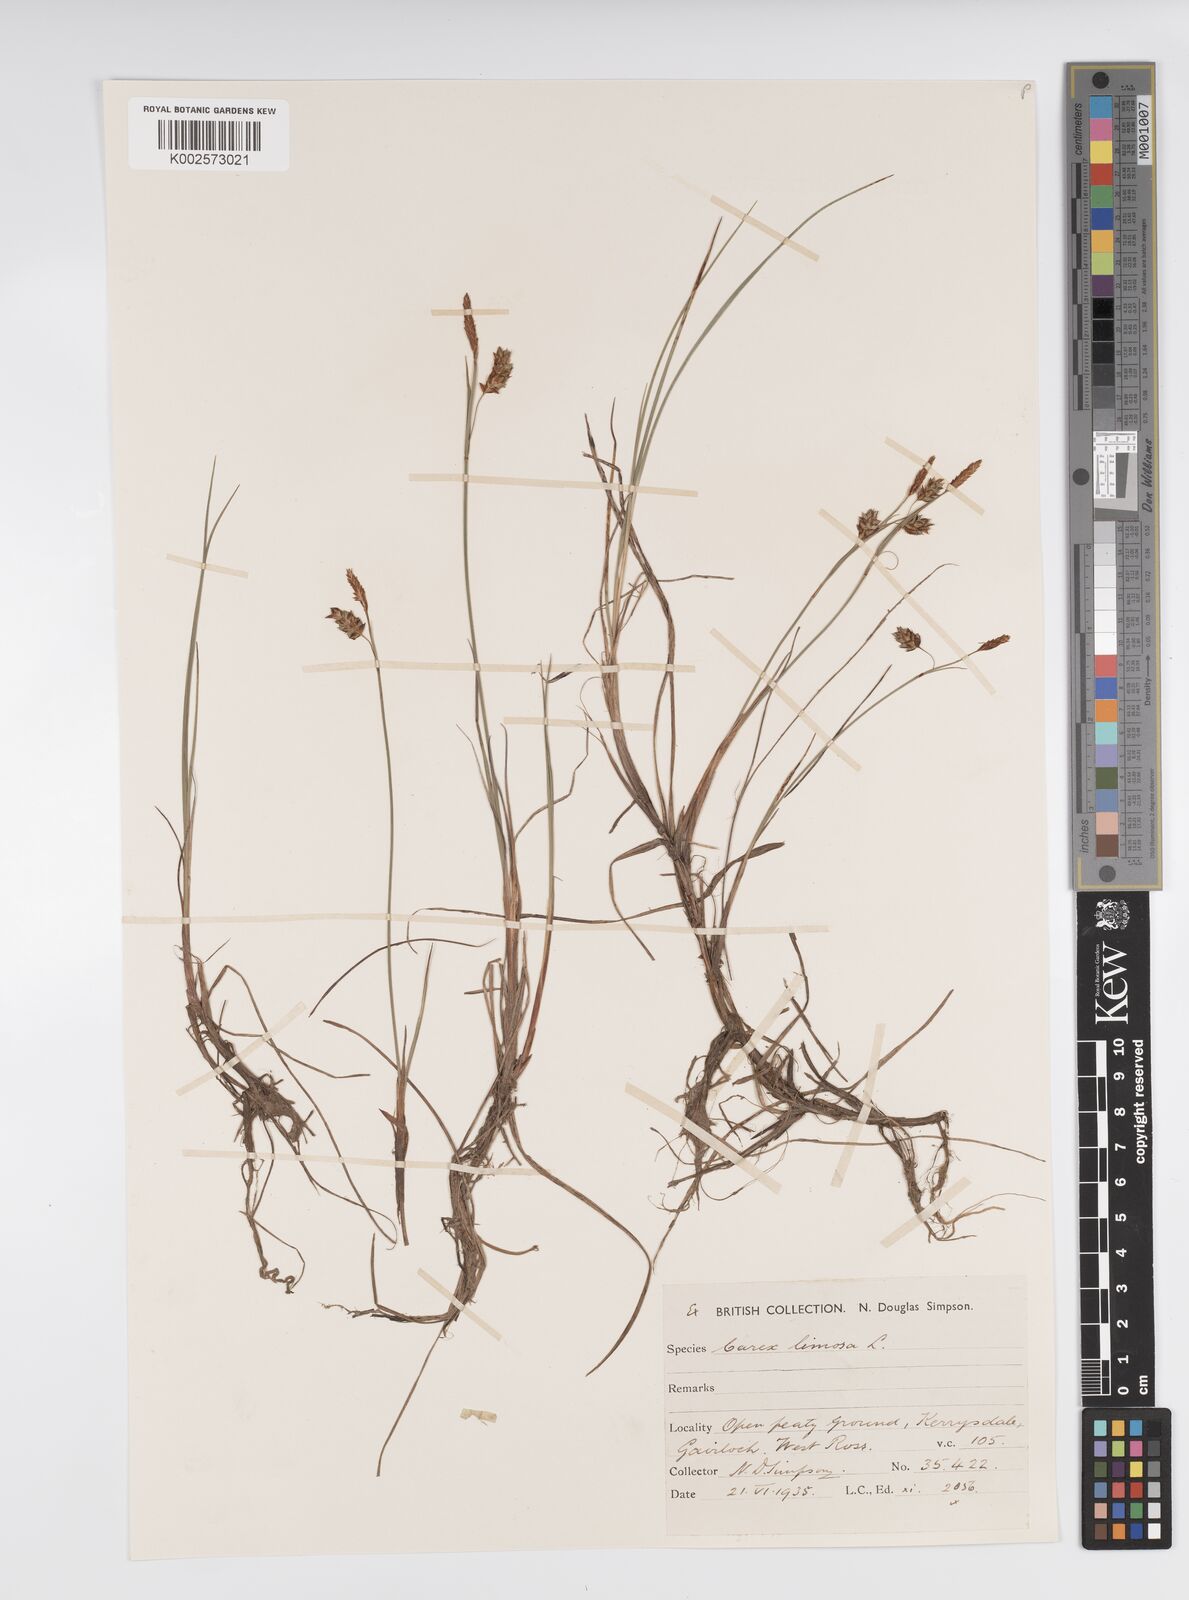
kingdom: Plantae
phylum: Tracheophyta
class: Liliopsida
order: Poales
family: Cyperaceae
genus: Carex
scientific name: Carex limosa
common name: Bog sedge
